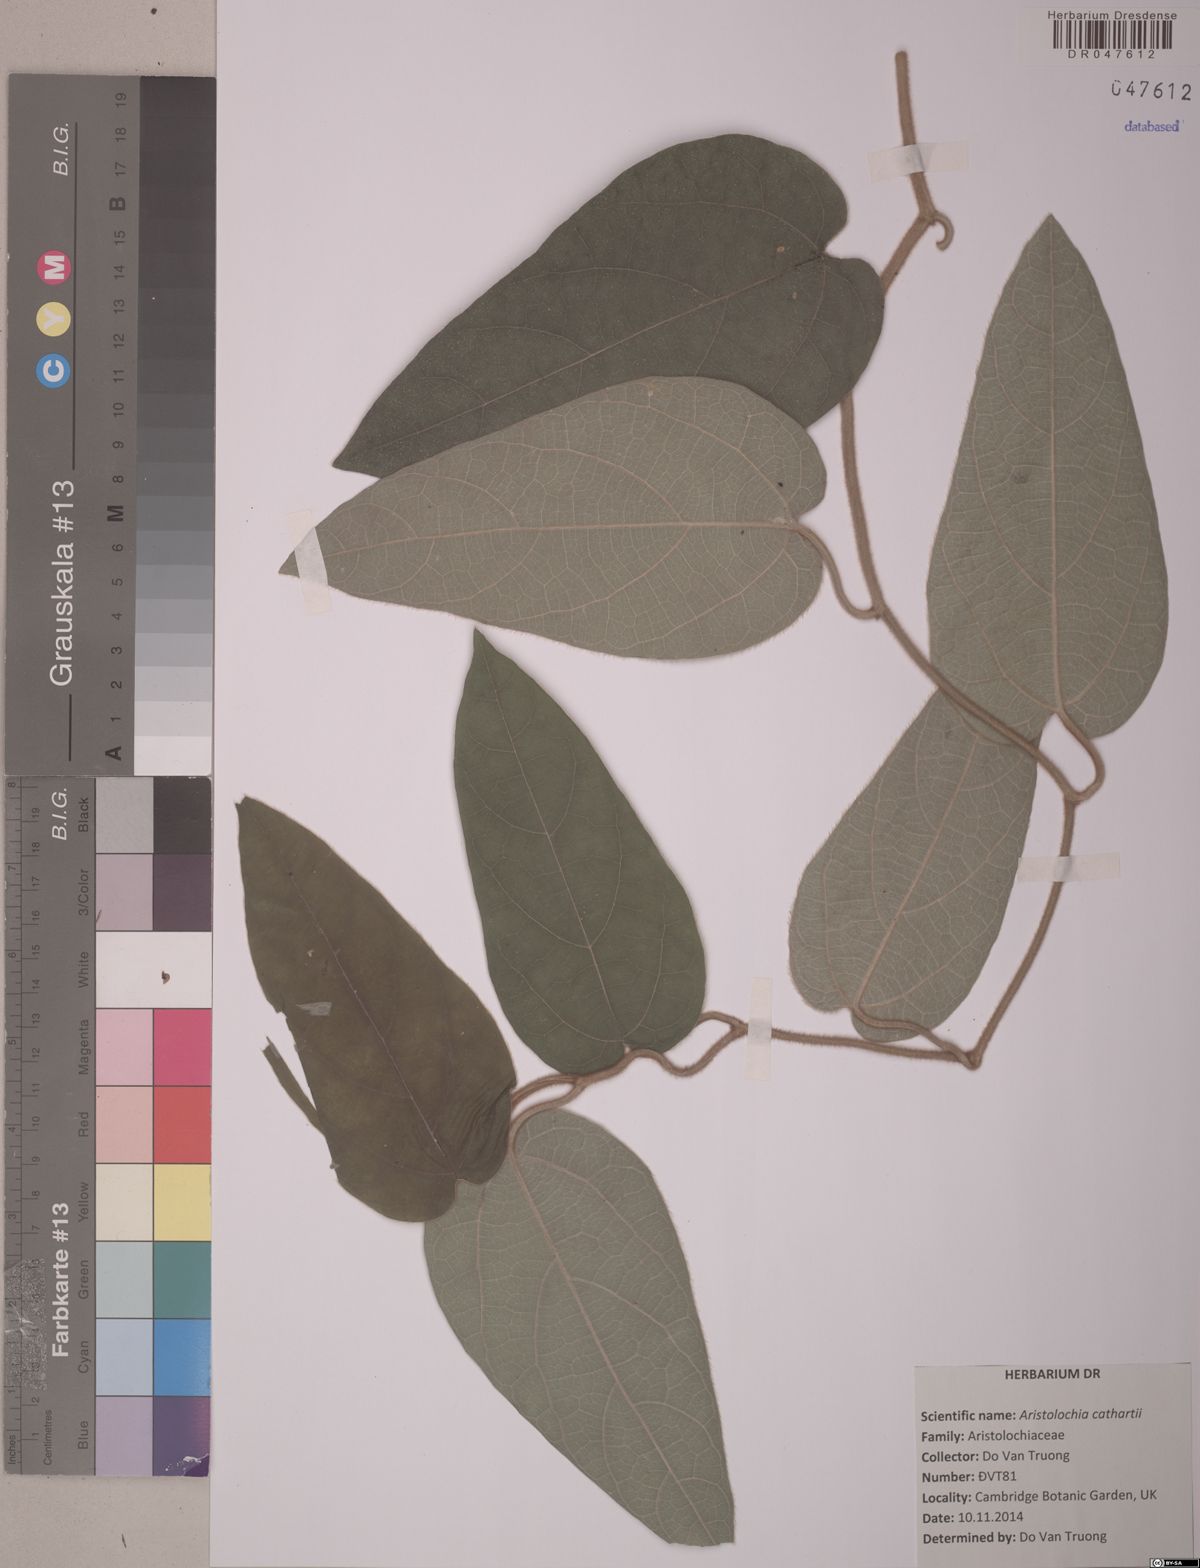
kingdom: Plantae
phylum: Tracheophyta
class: Magnoliopsida
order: Piperales
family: Aristolochiaceae
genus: Isotrema
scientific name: Isotrema cathcartii
